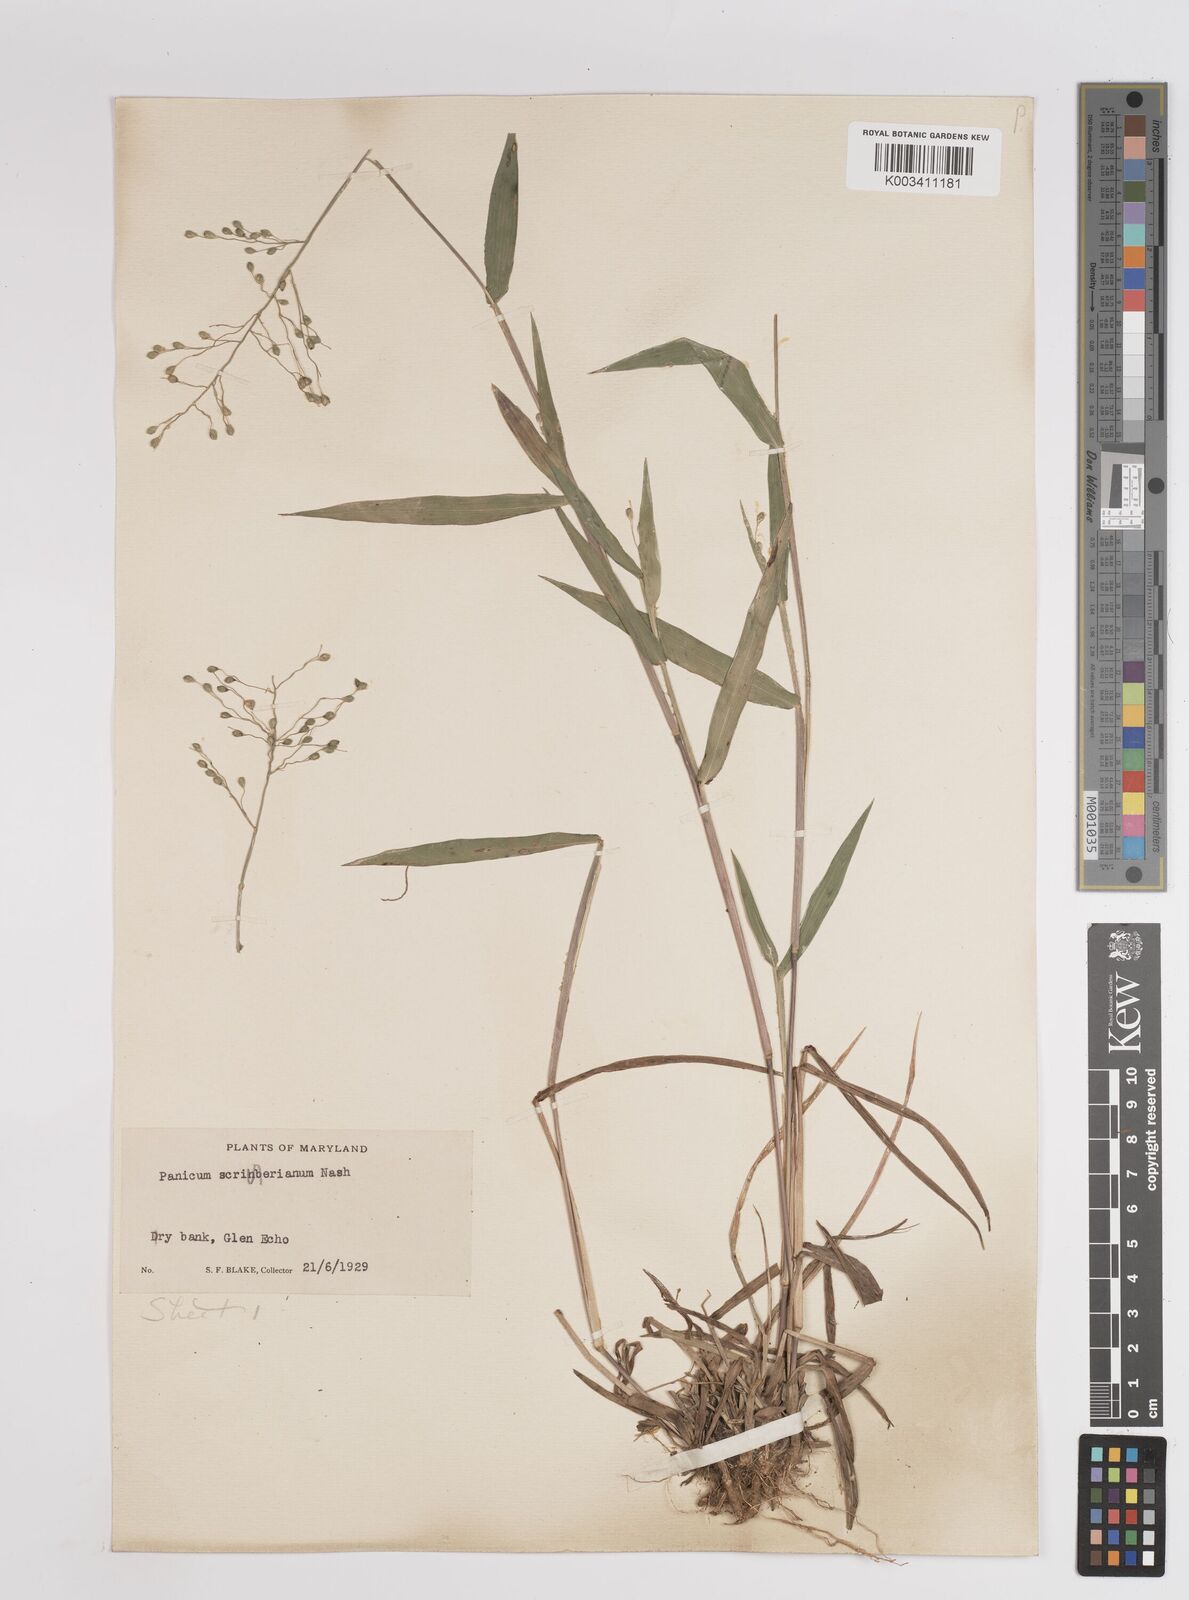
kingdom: Plantae
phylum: Tracheophyta
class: Liliopsida
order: Poales
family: Poaceae
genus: Dichanthelium
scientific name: Dichanthelium scribnerianum
